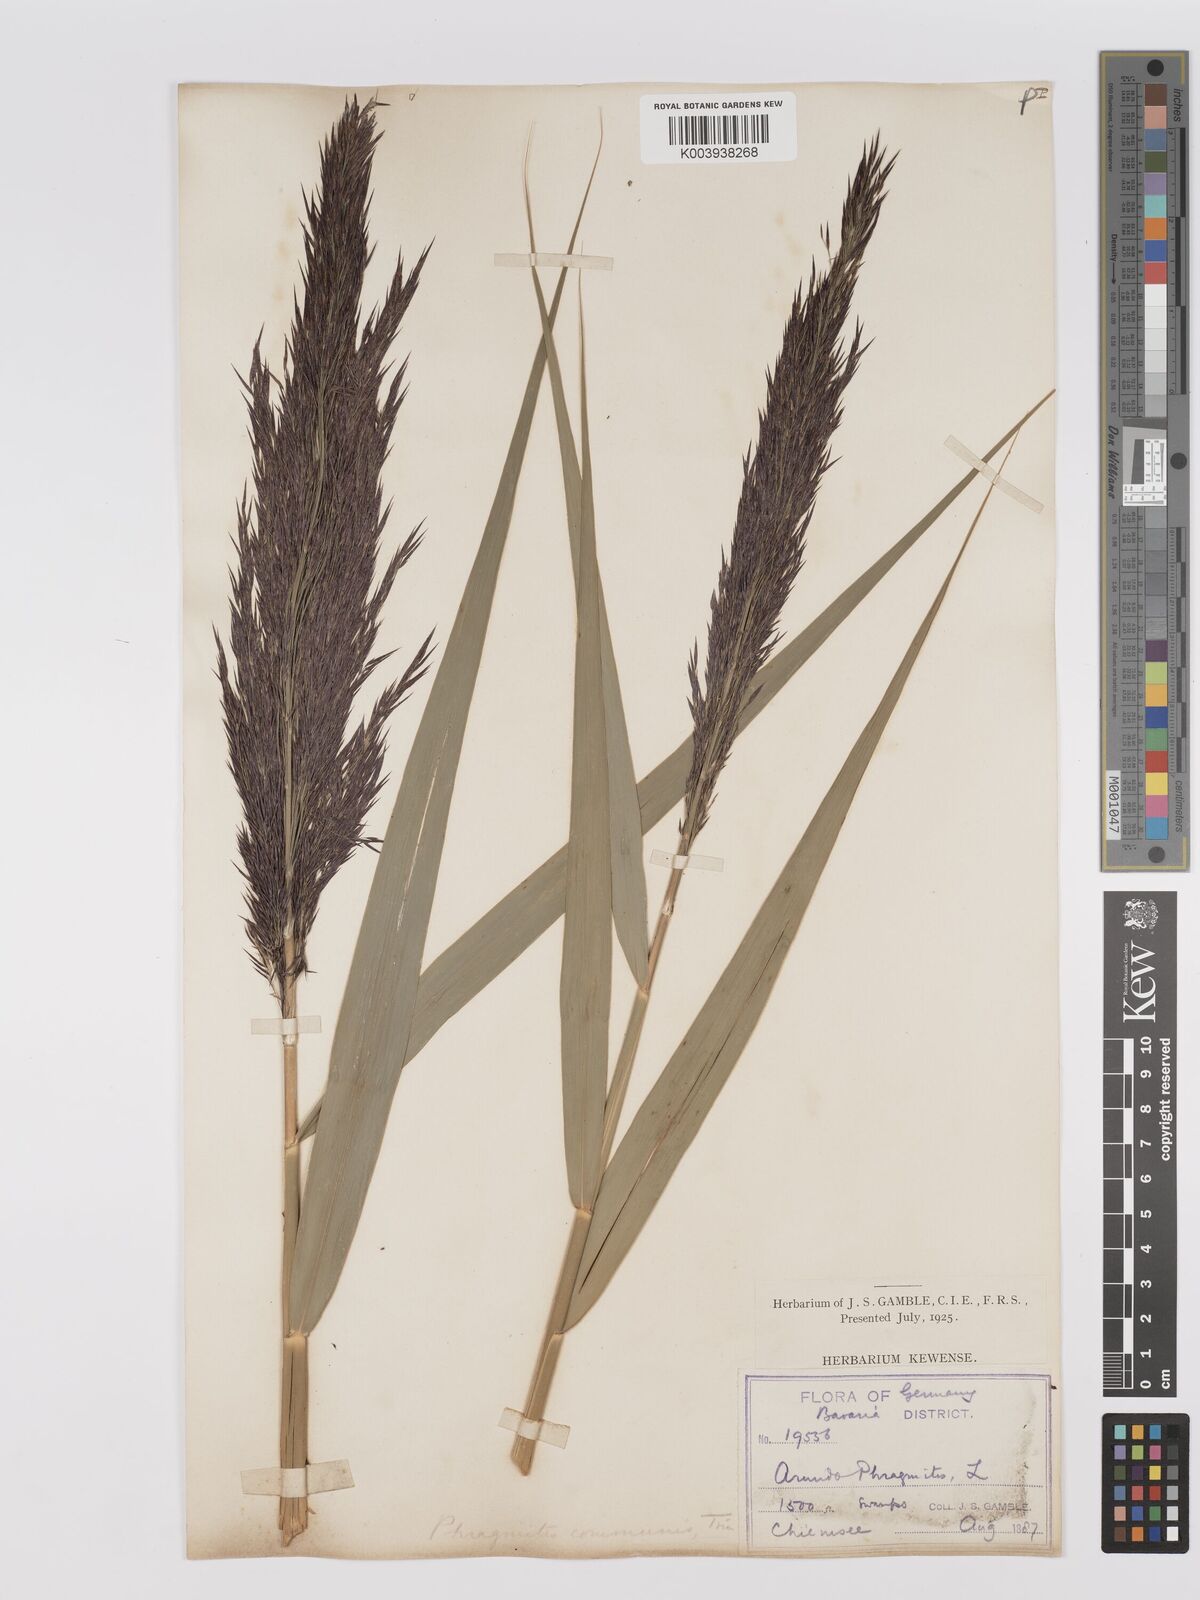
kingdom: Plantae
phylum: Tracheophyta
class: Liliopsida
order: Poales
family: Poaceae
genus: Phragmites
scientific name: Phragmites australis
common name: Common reed
